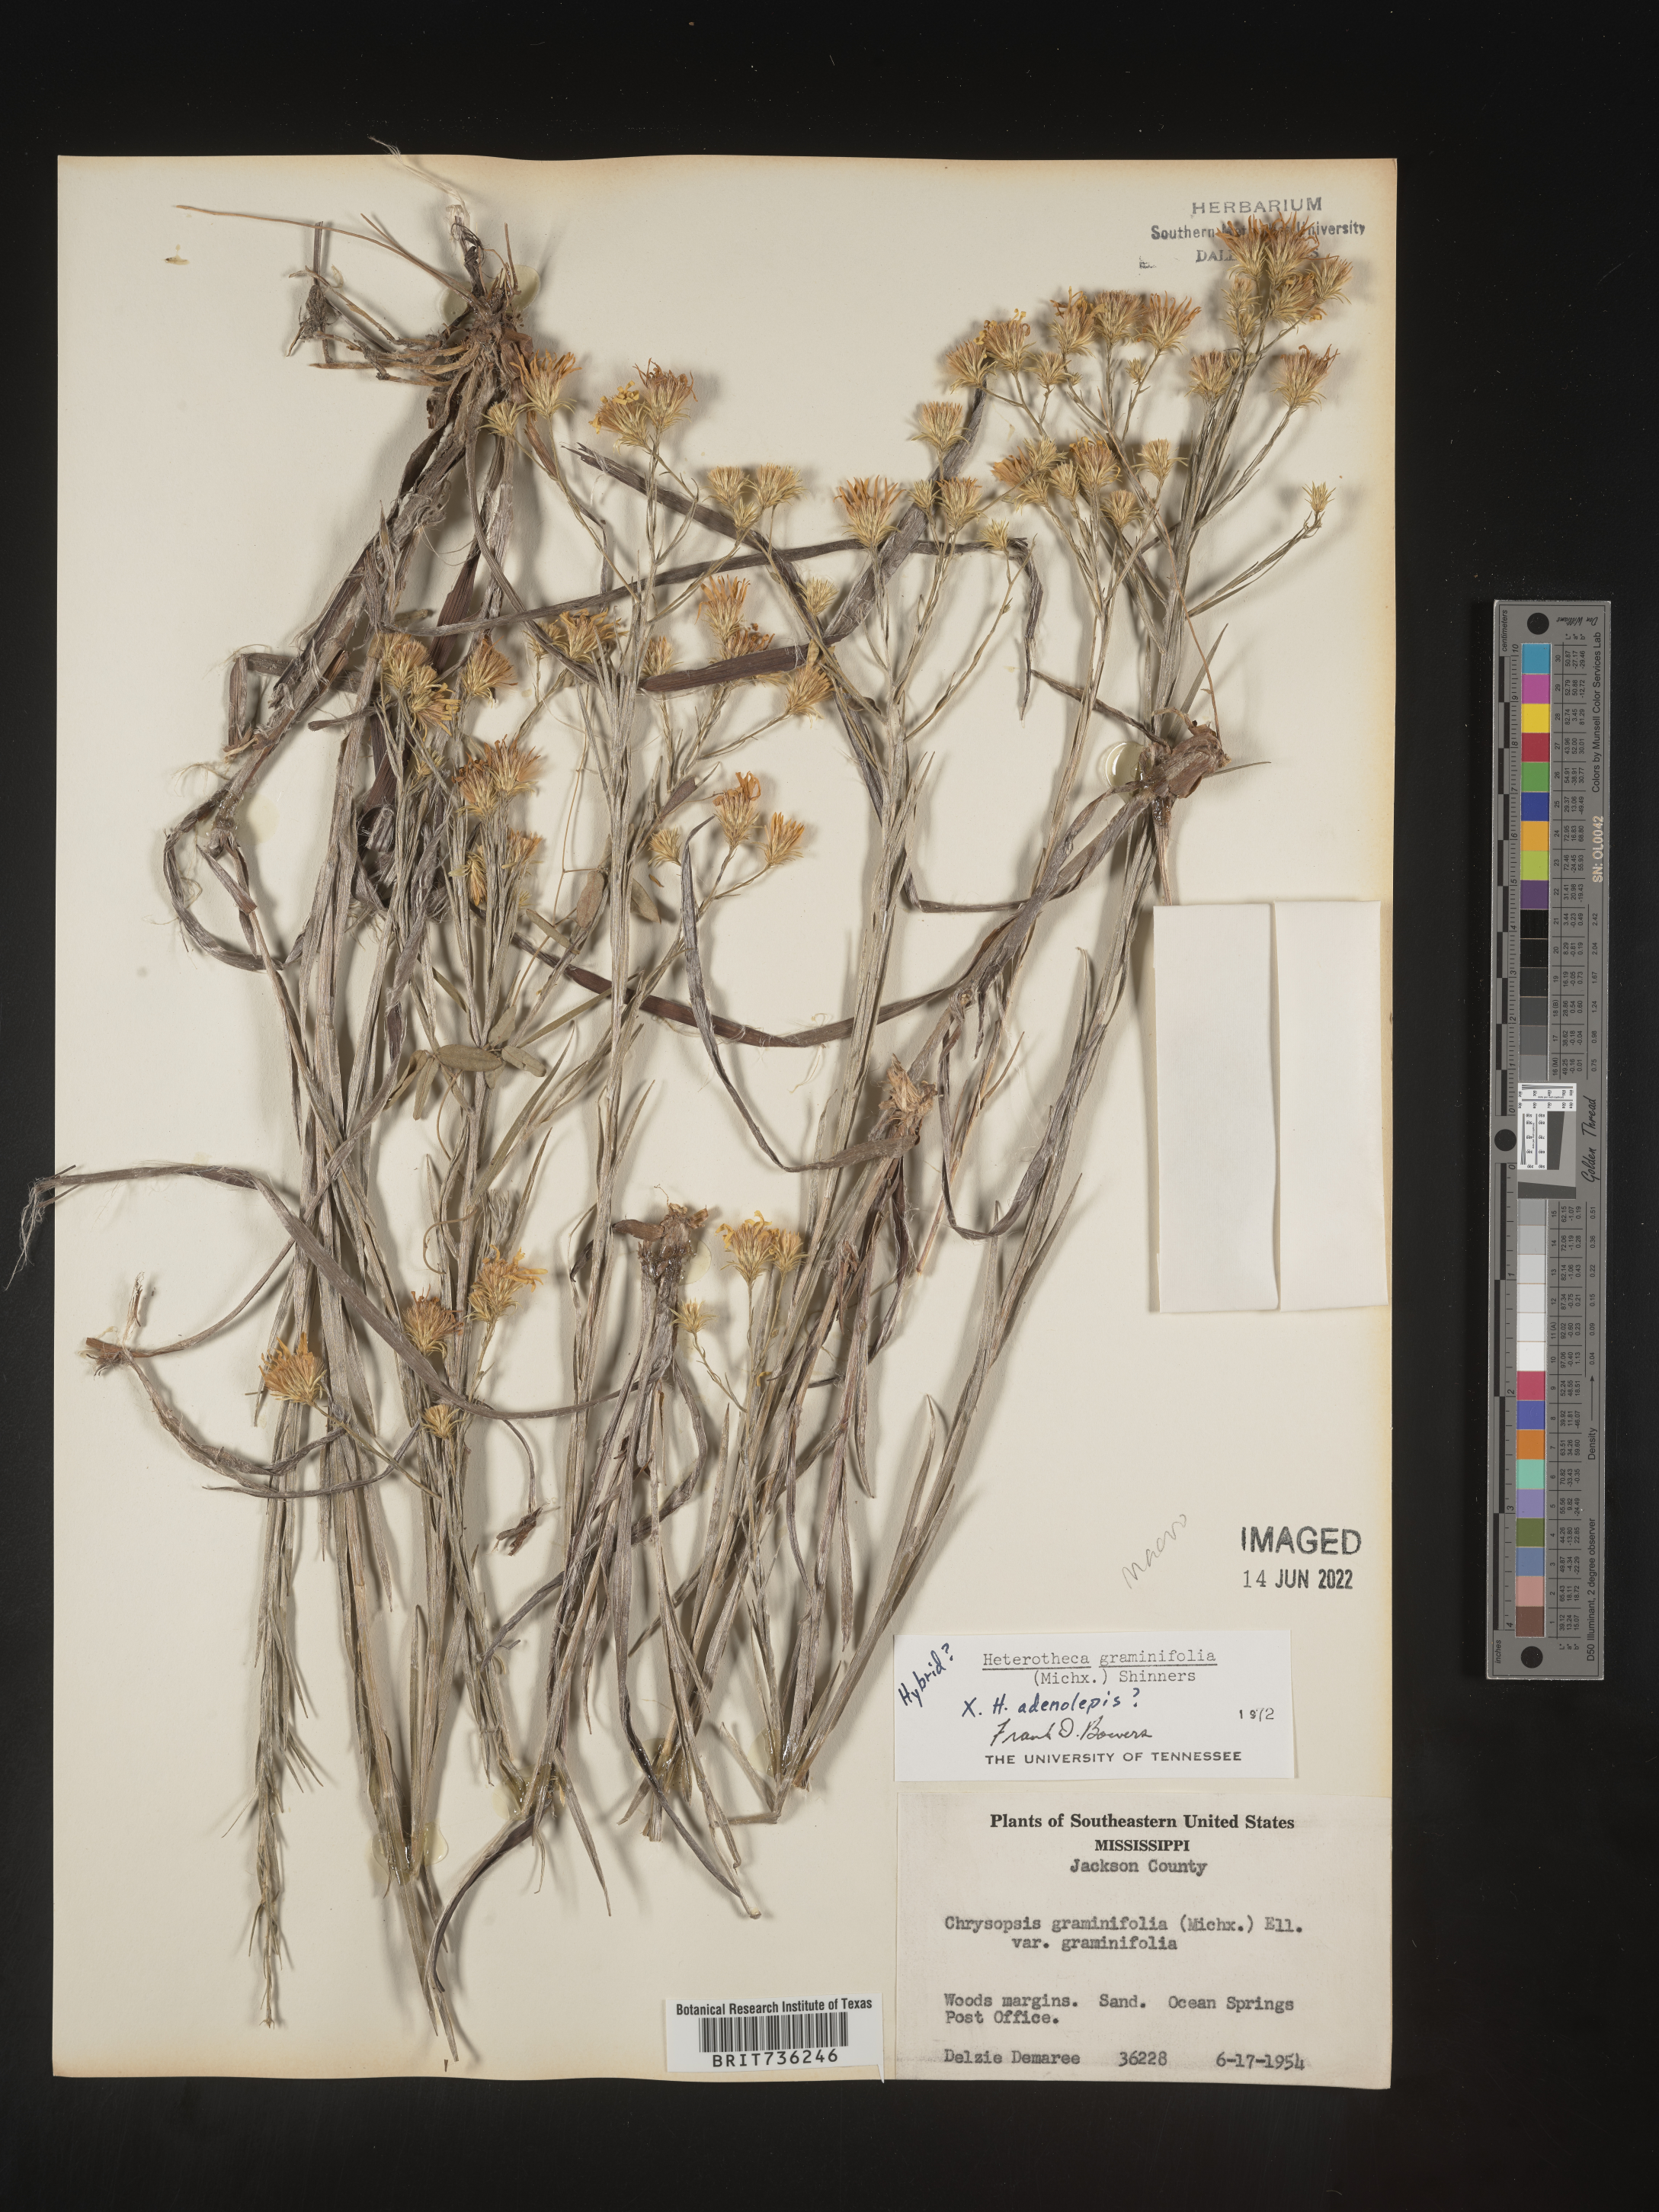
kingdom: Plantae
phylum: Tracheophyta
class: Magnoliopsida
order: Asterales
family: Asteraceae
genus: Pityopsis
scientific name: Pityopsis graminifolia
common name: Grass-leaf golden-aster
